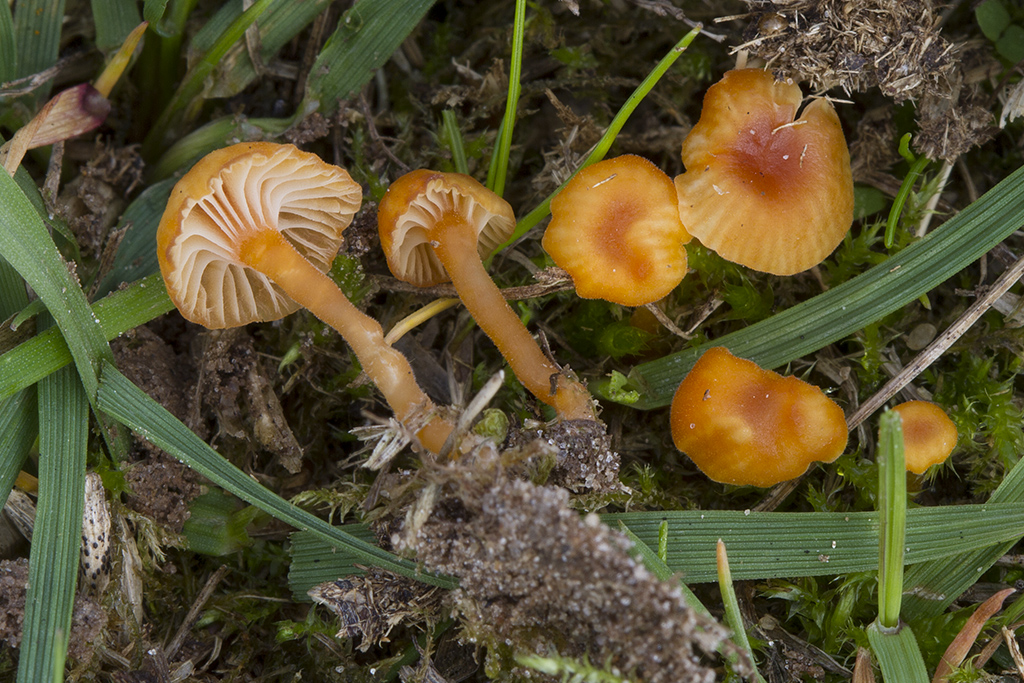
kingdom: Fungi
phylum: Basidiomycota
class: Agaricomycetes
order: Hymenochaetales
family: Rickenellaceae
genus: Rickenella
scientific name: Rickenella fibula
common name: orange mosnavlehat
